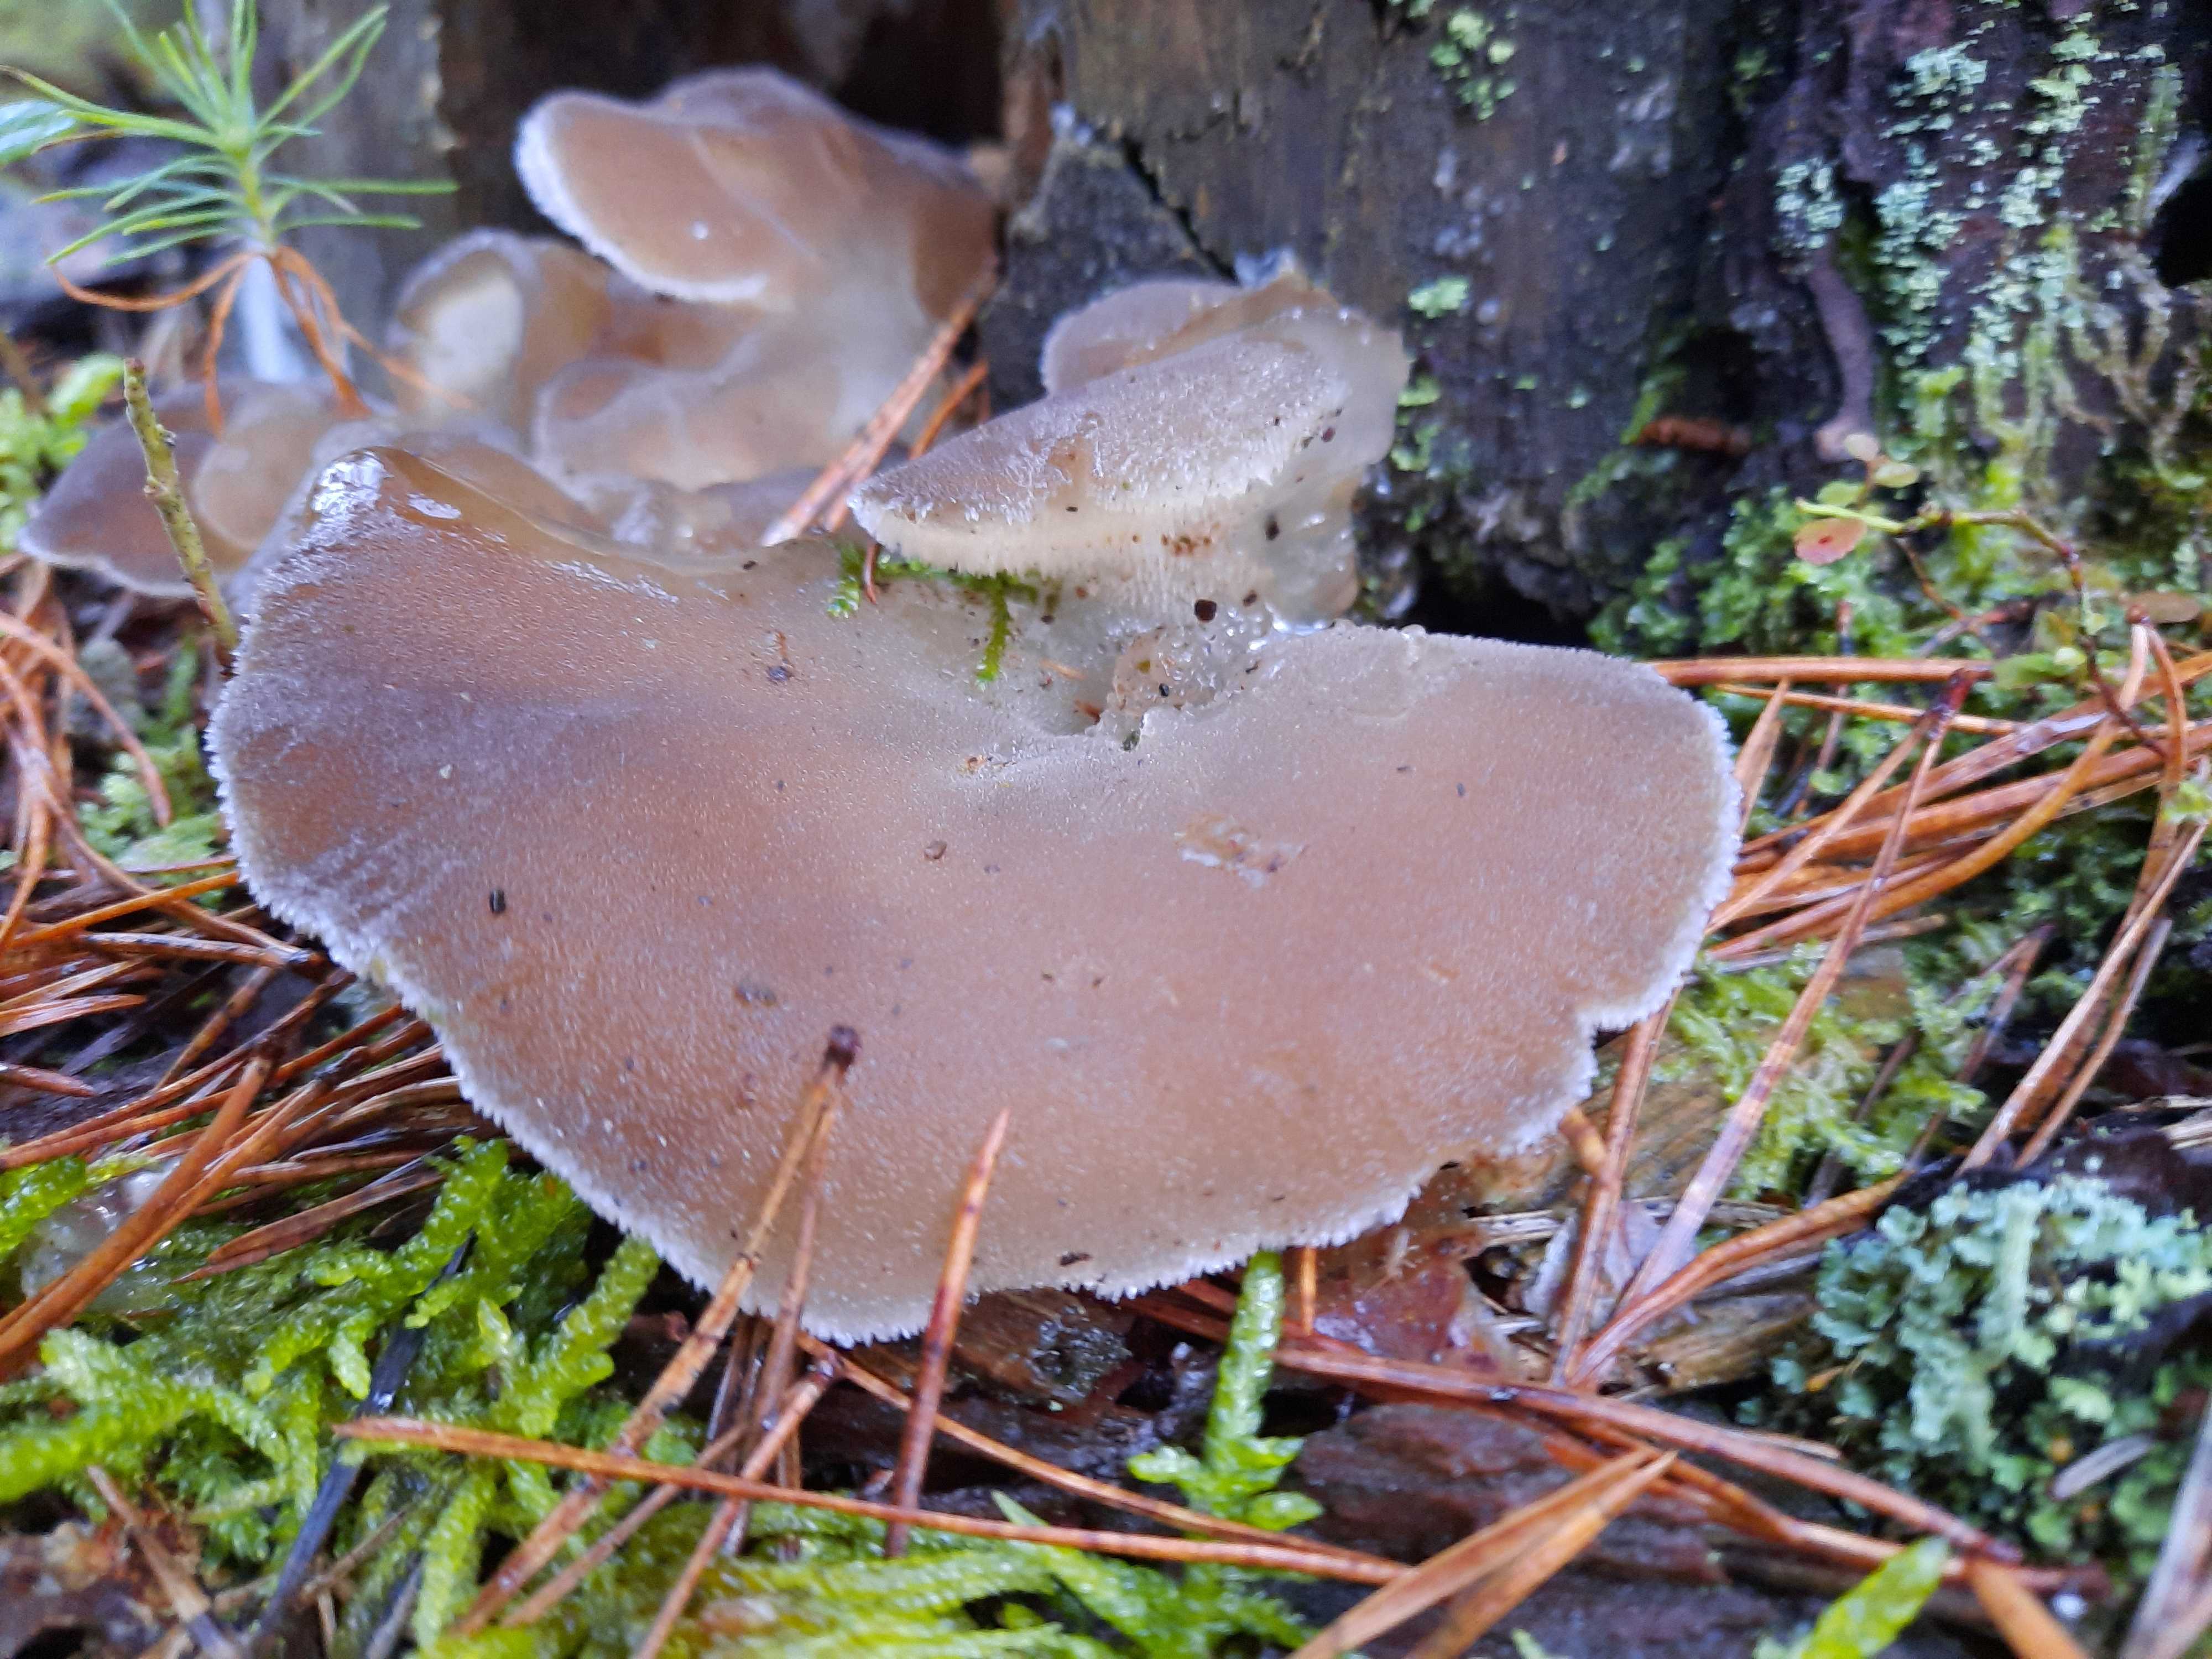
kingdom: Fungi
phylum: Basidiomycota
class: Agaricomycetes
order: Auriculariales
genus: Pseudohydnum
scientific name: Pseudohydnum gelatinosum
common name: bævretand
